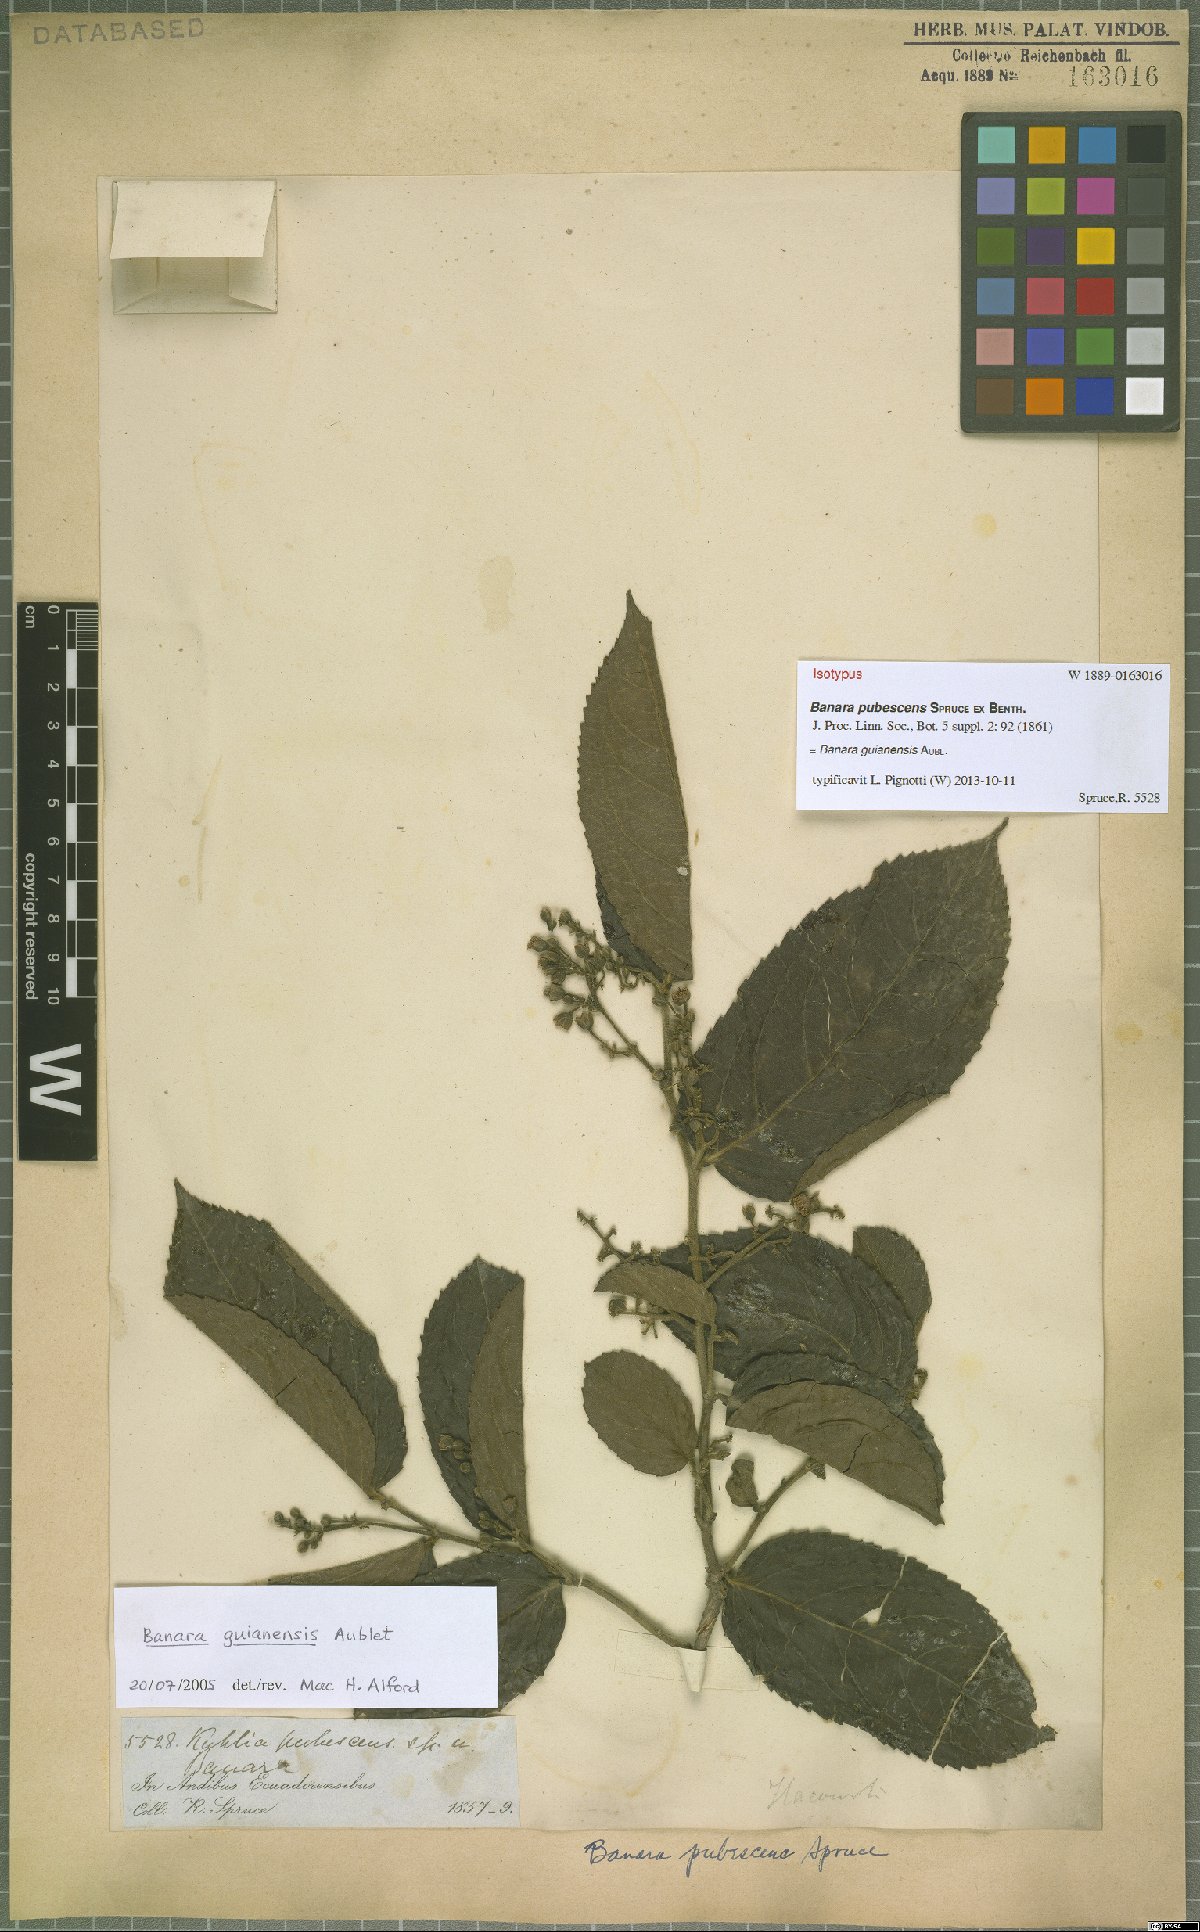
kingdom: Plantae
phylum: Tracheophyta
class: Magnoliopsida
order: Malpighiales
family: Salicaceae
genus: Banara
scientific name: Banara guianensis
